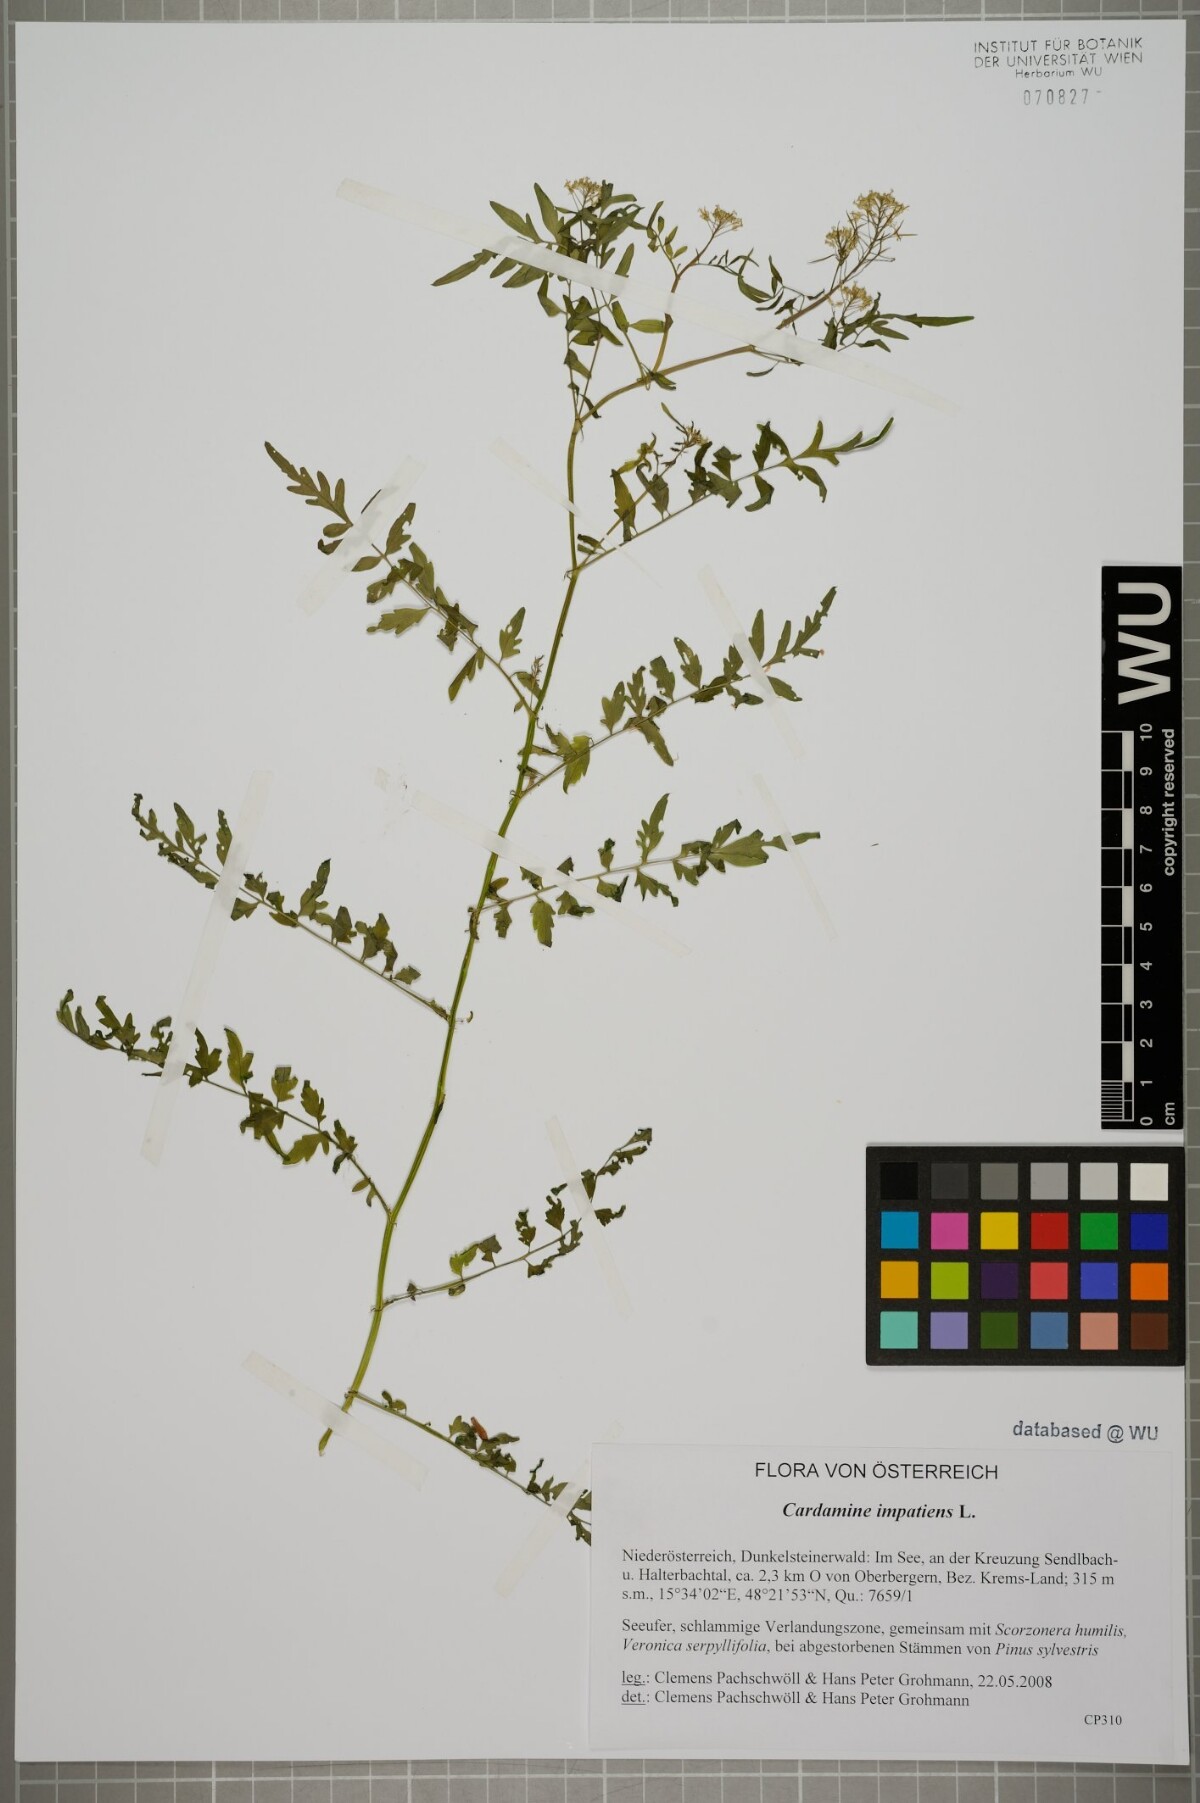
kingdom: Plantae
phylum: Tracheophyta
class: Magnoliopsida
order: Brassicales
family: Brassicaceae
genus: Cardamine
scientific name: Cardamine impatiens
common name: Narrow-leaved bitter-cress
